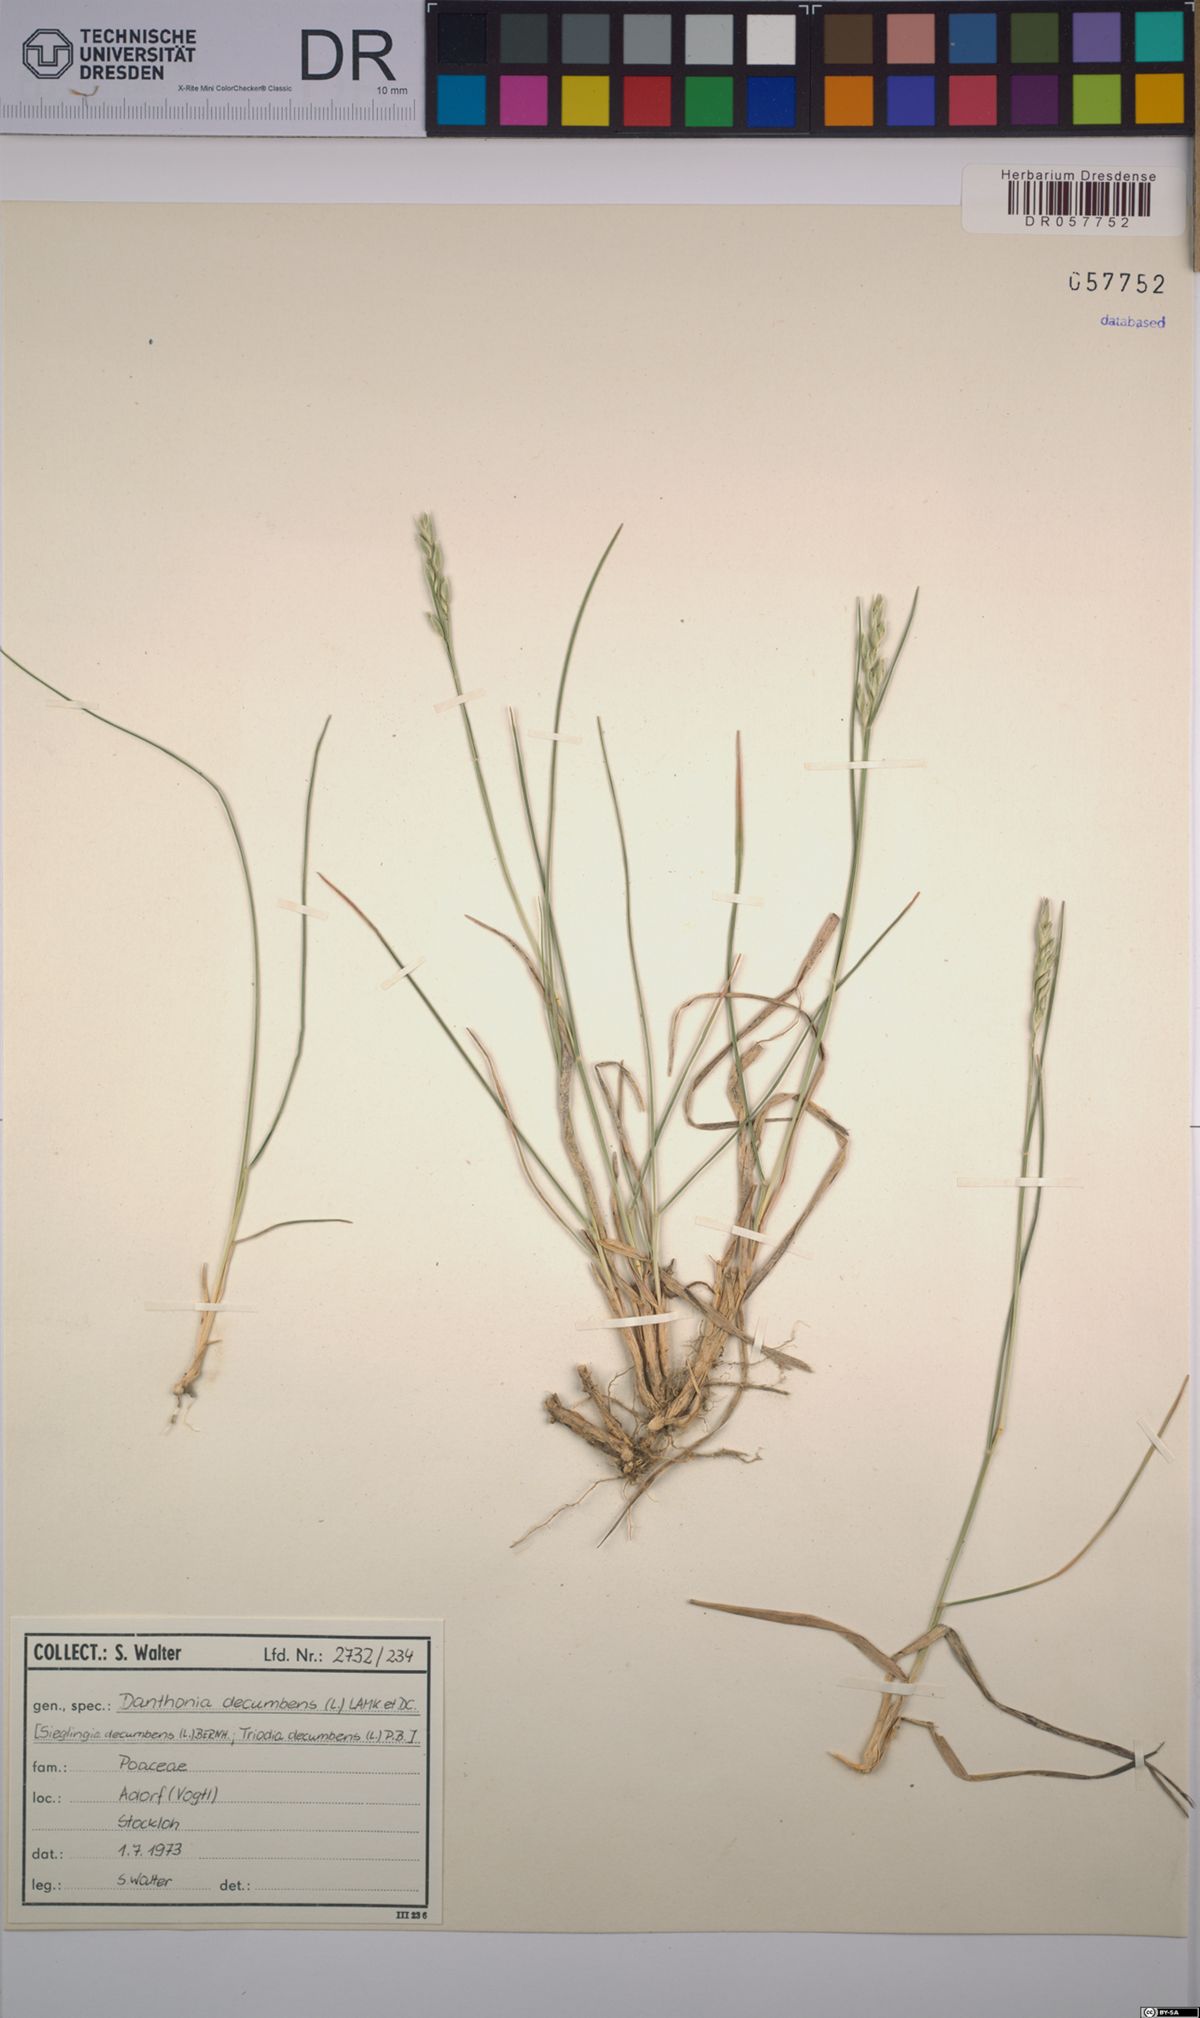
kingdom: Plantae
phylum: Tracheophyta
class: Liliopsida
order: Poales
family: Poaceae
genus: Danthonia
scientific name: Danthonia decumbens
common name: Common heathgrass
